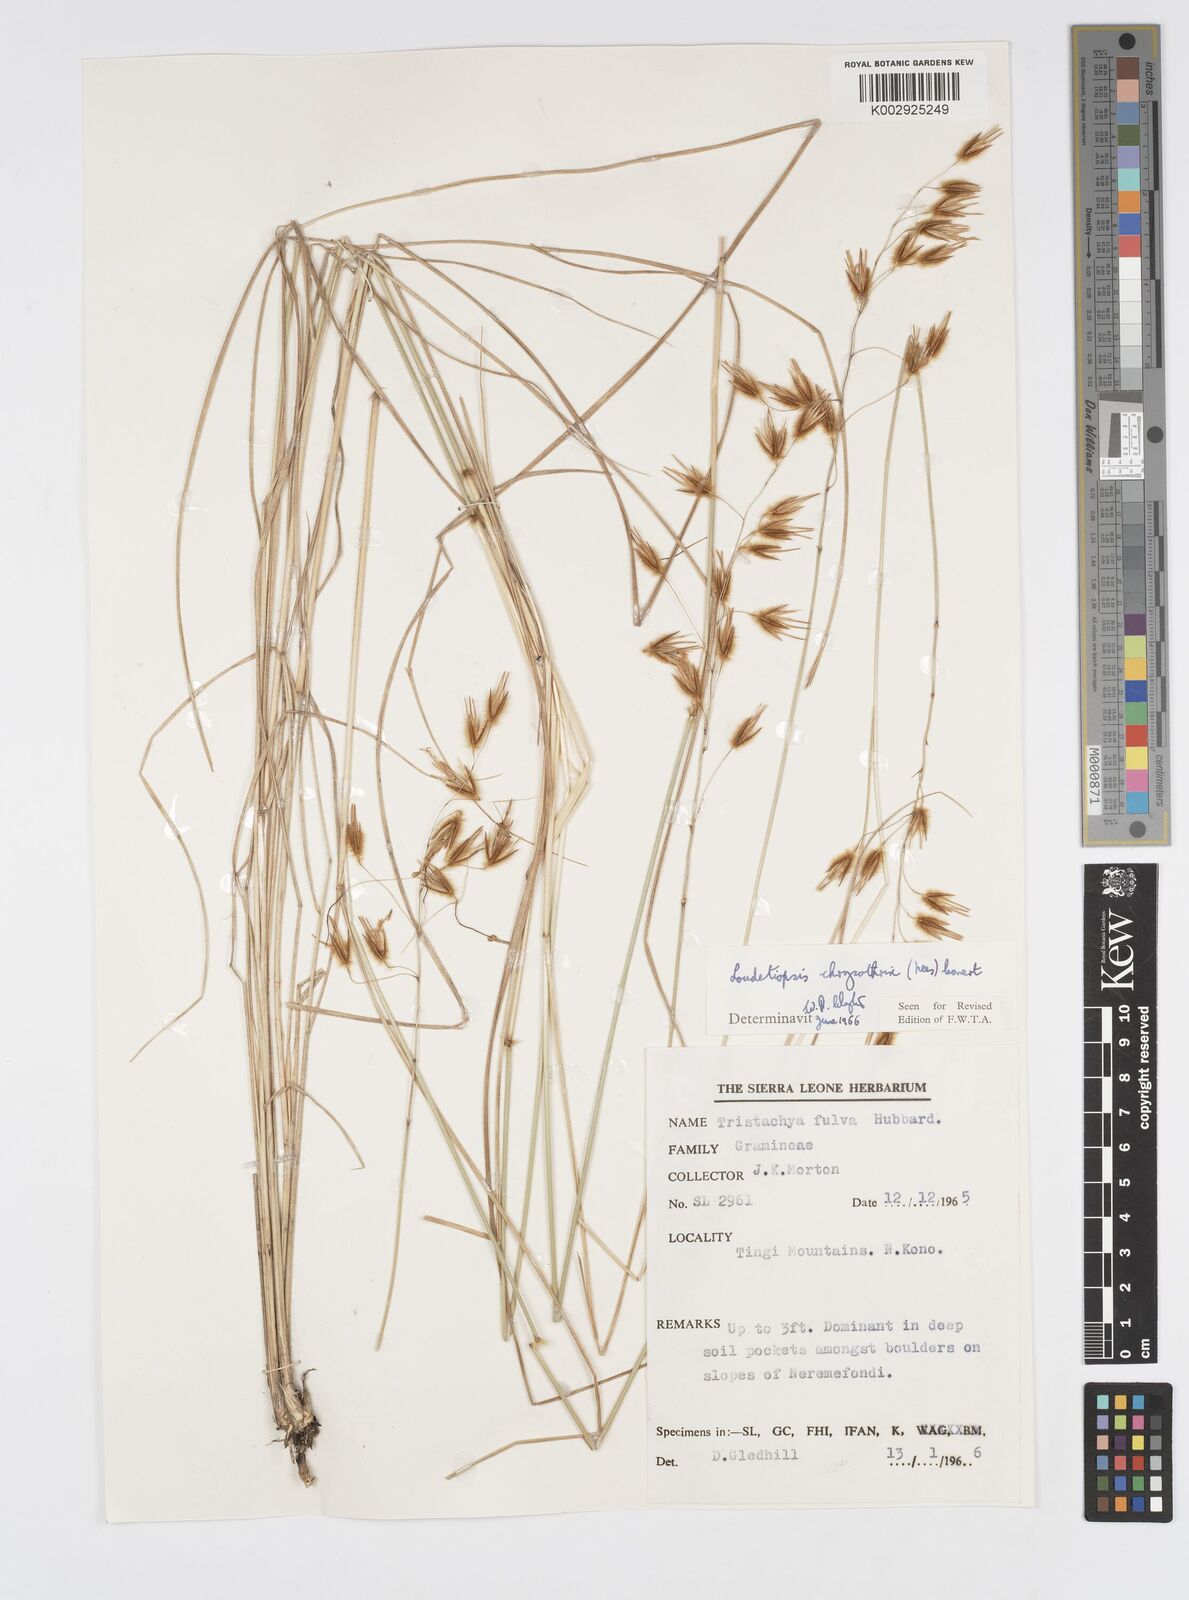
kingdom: Plantae
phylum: Tracheophyta
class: Liliopsida
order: Poales
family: Poaceae
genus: Loudetiopsis
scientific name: Loudetiopsis chrysothrix
